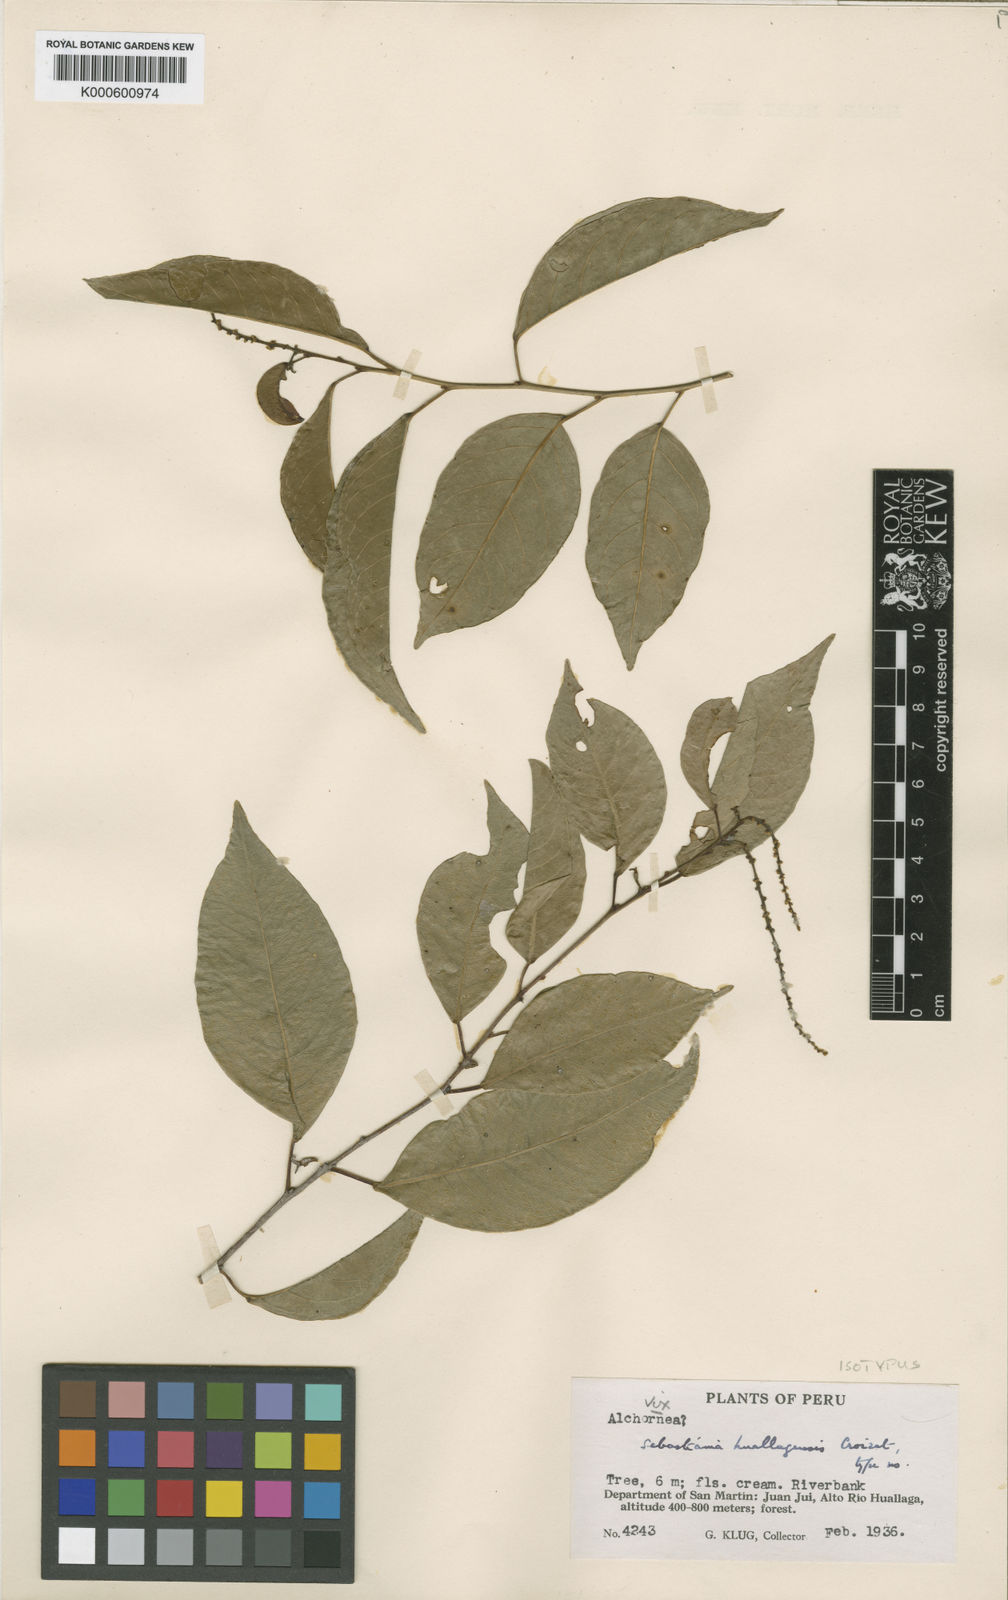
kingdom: Plantae
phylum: Tracheophyta
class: Magnoliopsida
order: Malpighiales
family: Euphorbiaceae
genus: Pleradenophora
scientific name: Pleradenophora
